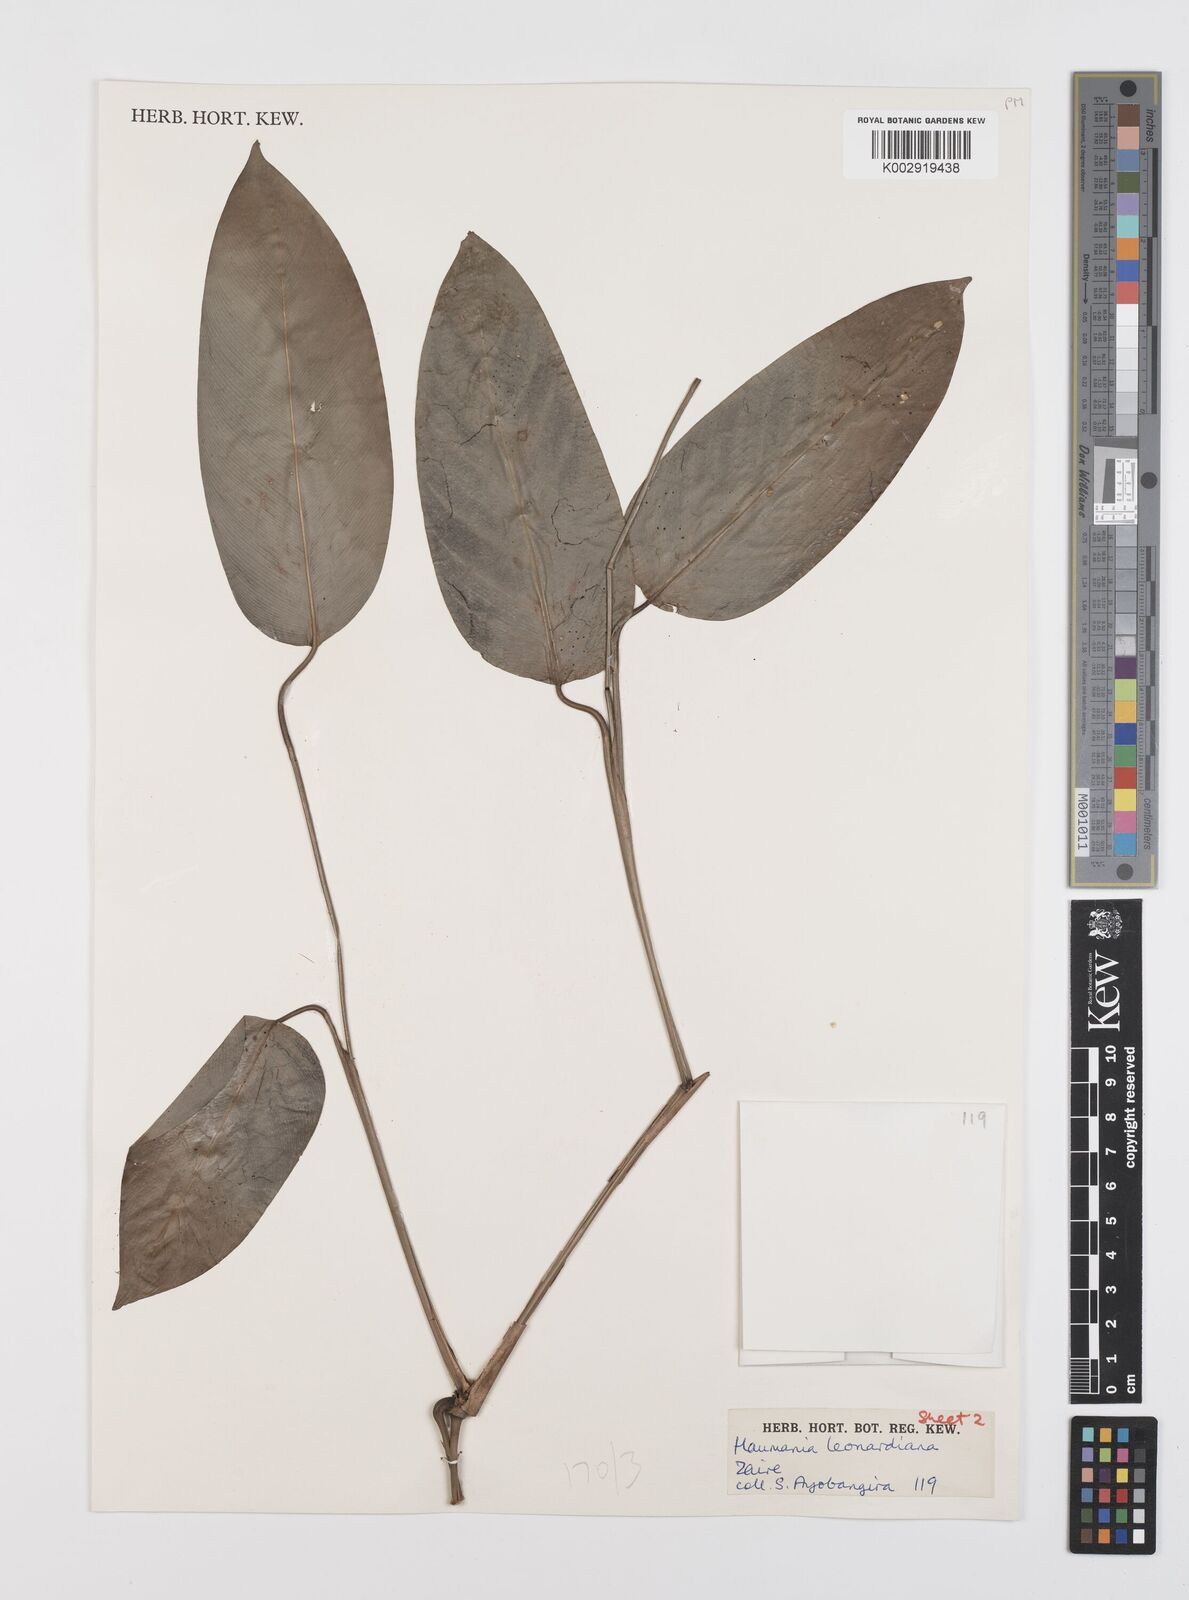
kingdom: Plantae
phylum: Tracheophyta
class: Liliopsida
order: Zingiberales
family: Marantaceae
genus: Haumania
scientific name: Haumania leonardiana
